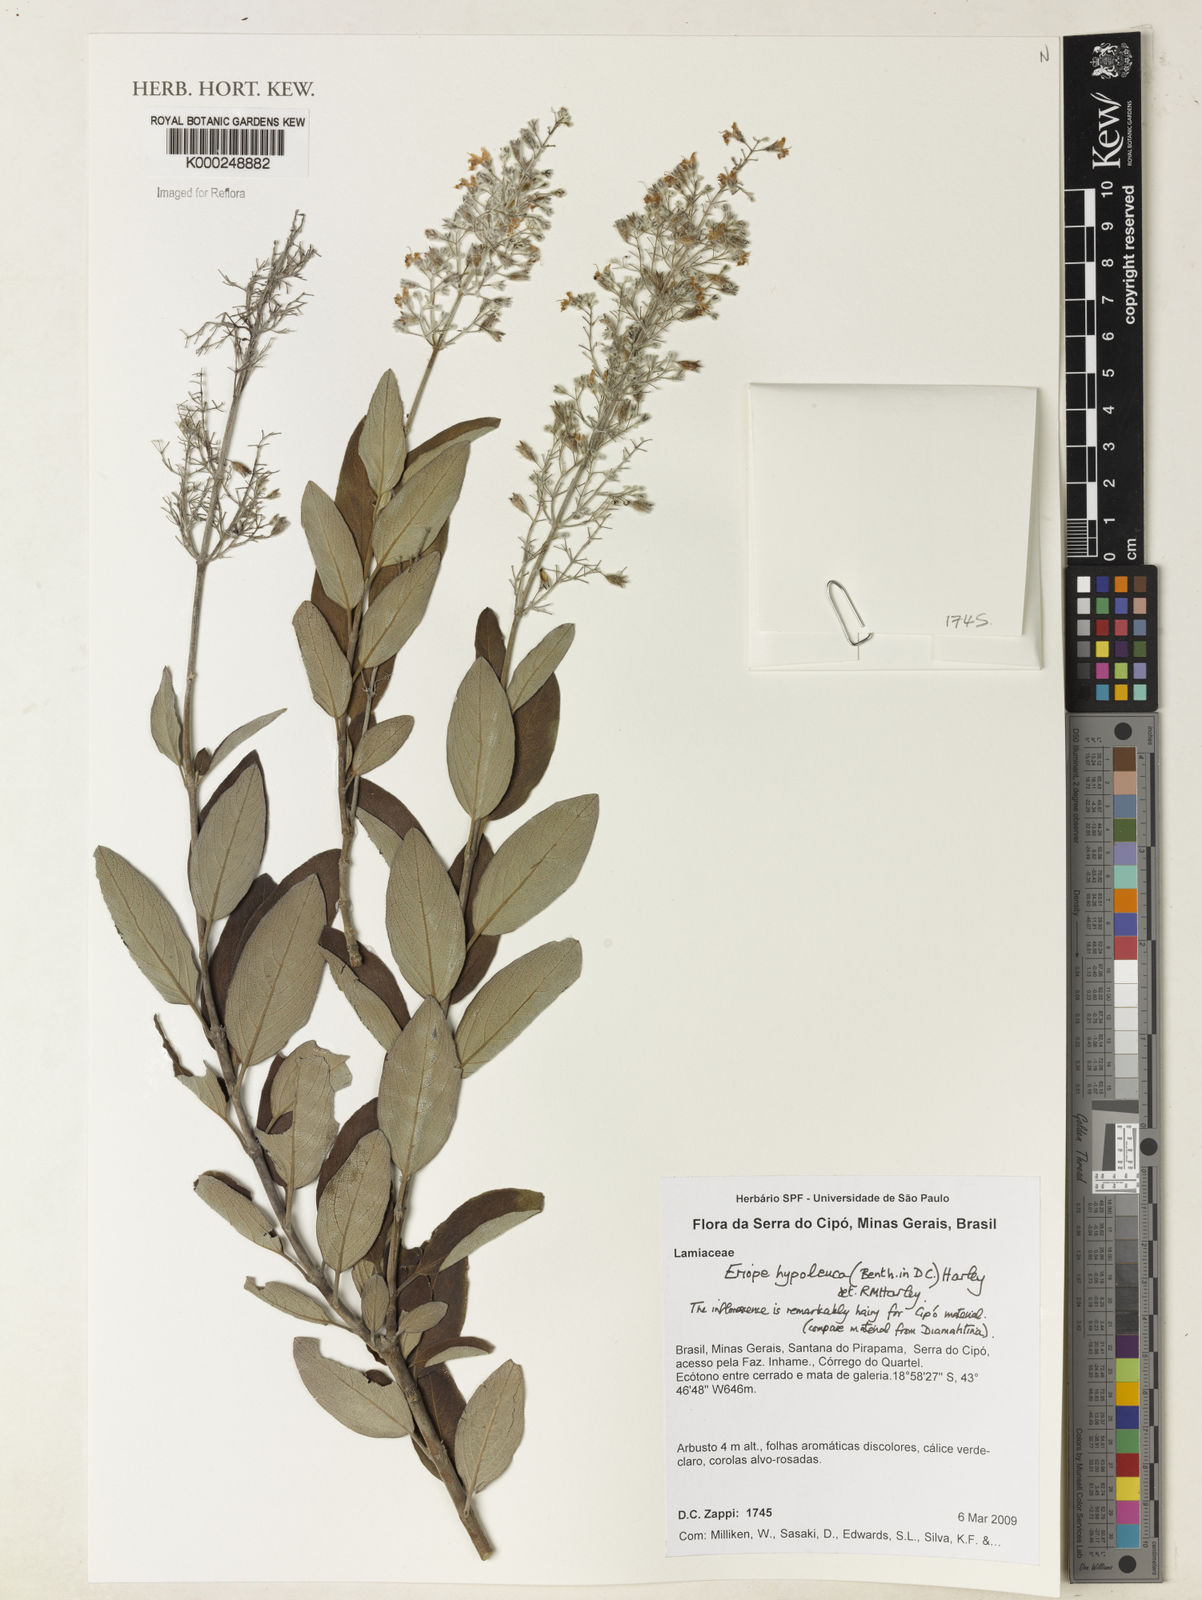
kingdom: Plantae
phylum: Tracheophyta
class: Magnoliopsida
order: Lamiales
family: Lamiaceae
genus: Eriope
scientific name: Eriope hypoleuca
